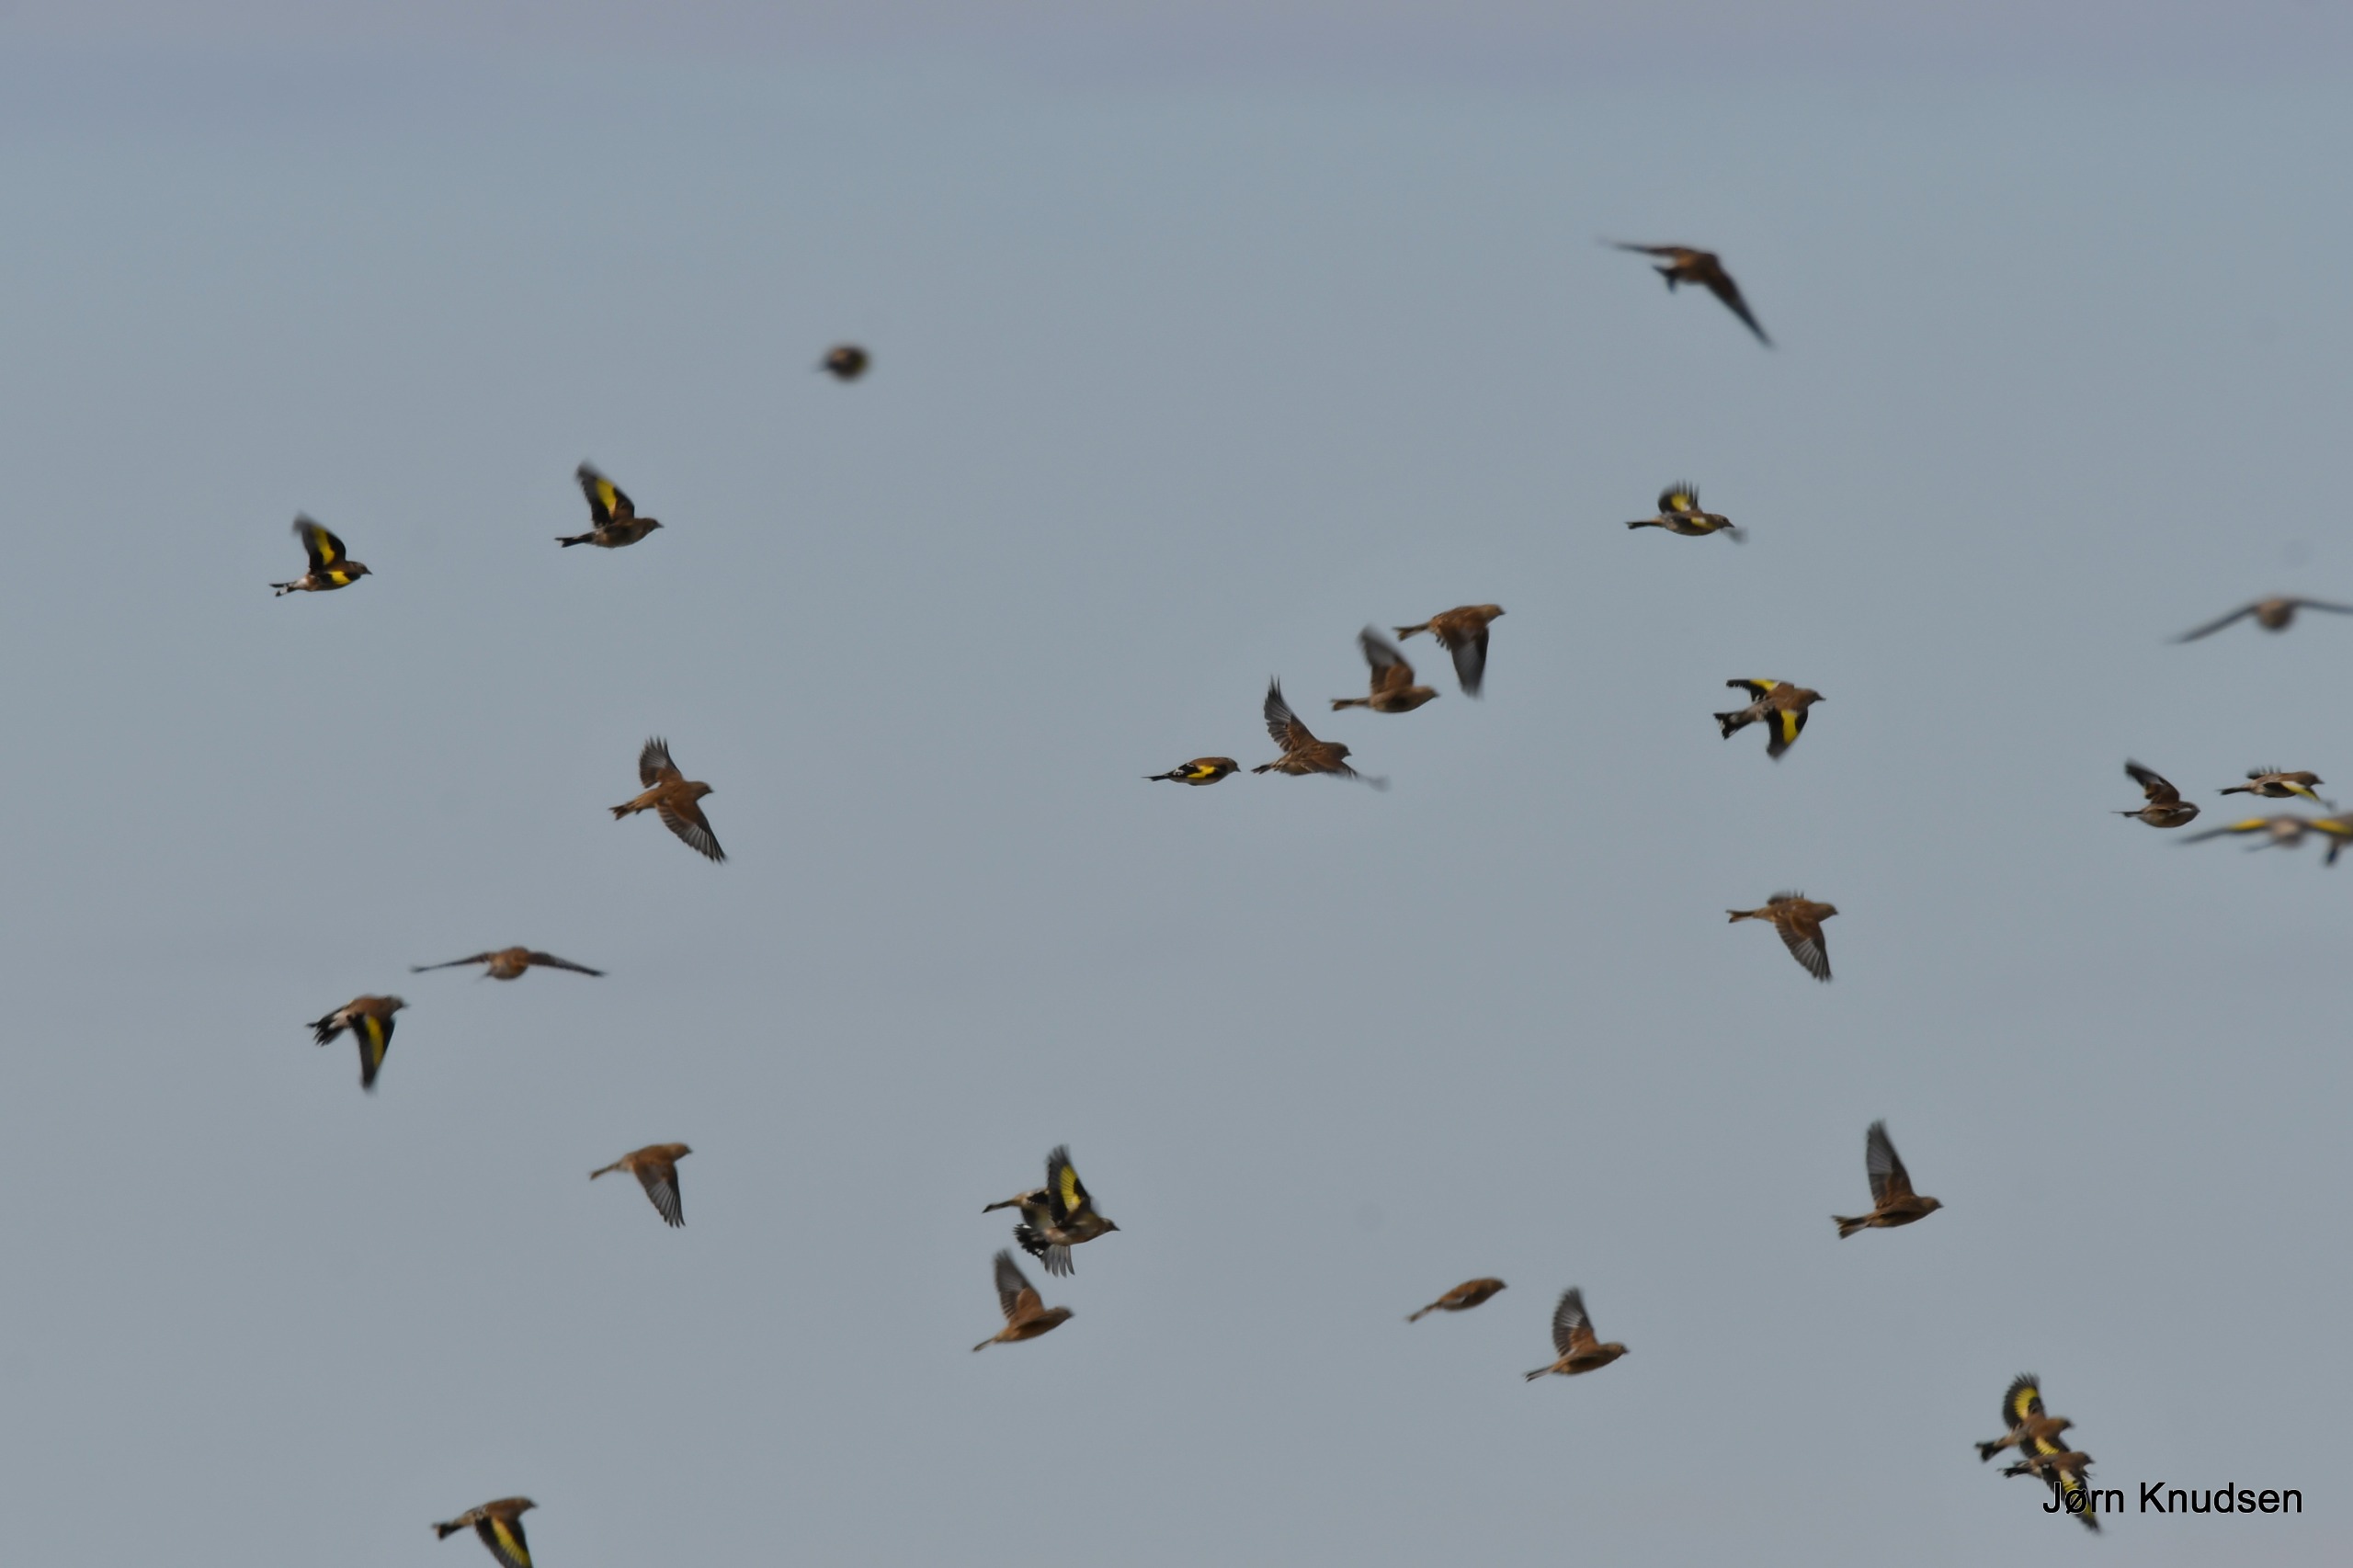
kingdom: Animalia
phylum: Chordata
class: Aves
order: Passeriformes
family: Fringillidae
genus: Carduelis
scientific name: Carduelis carduelis
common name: Stillits
